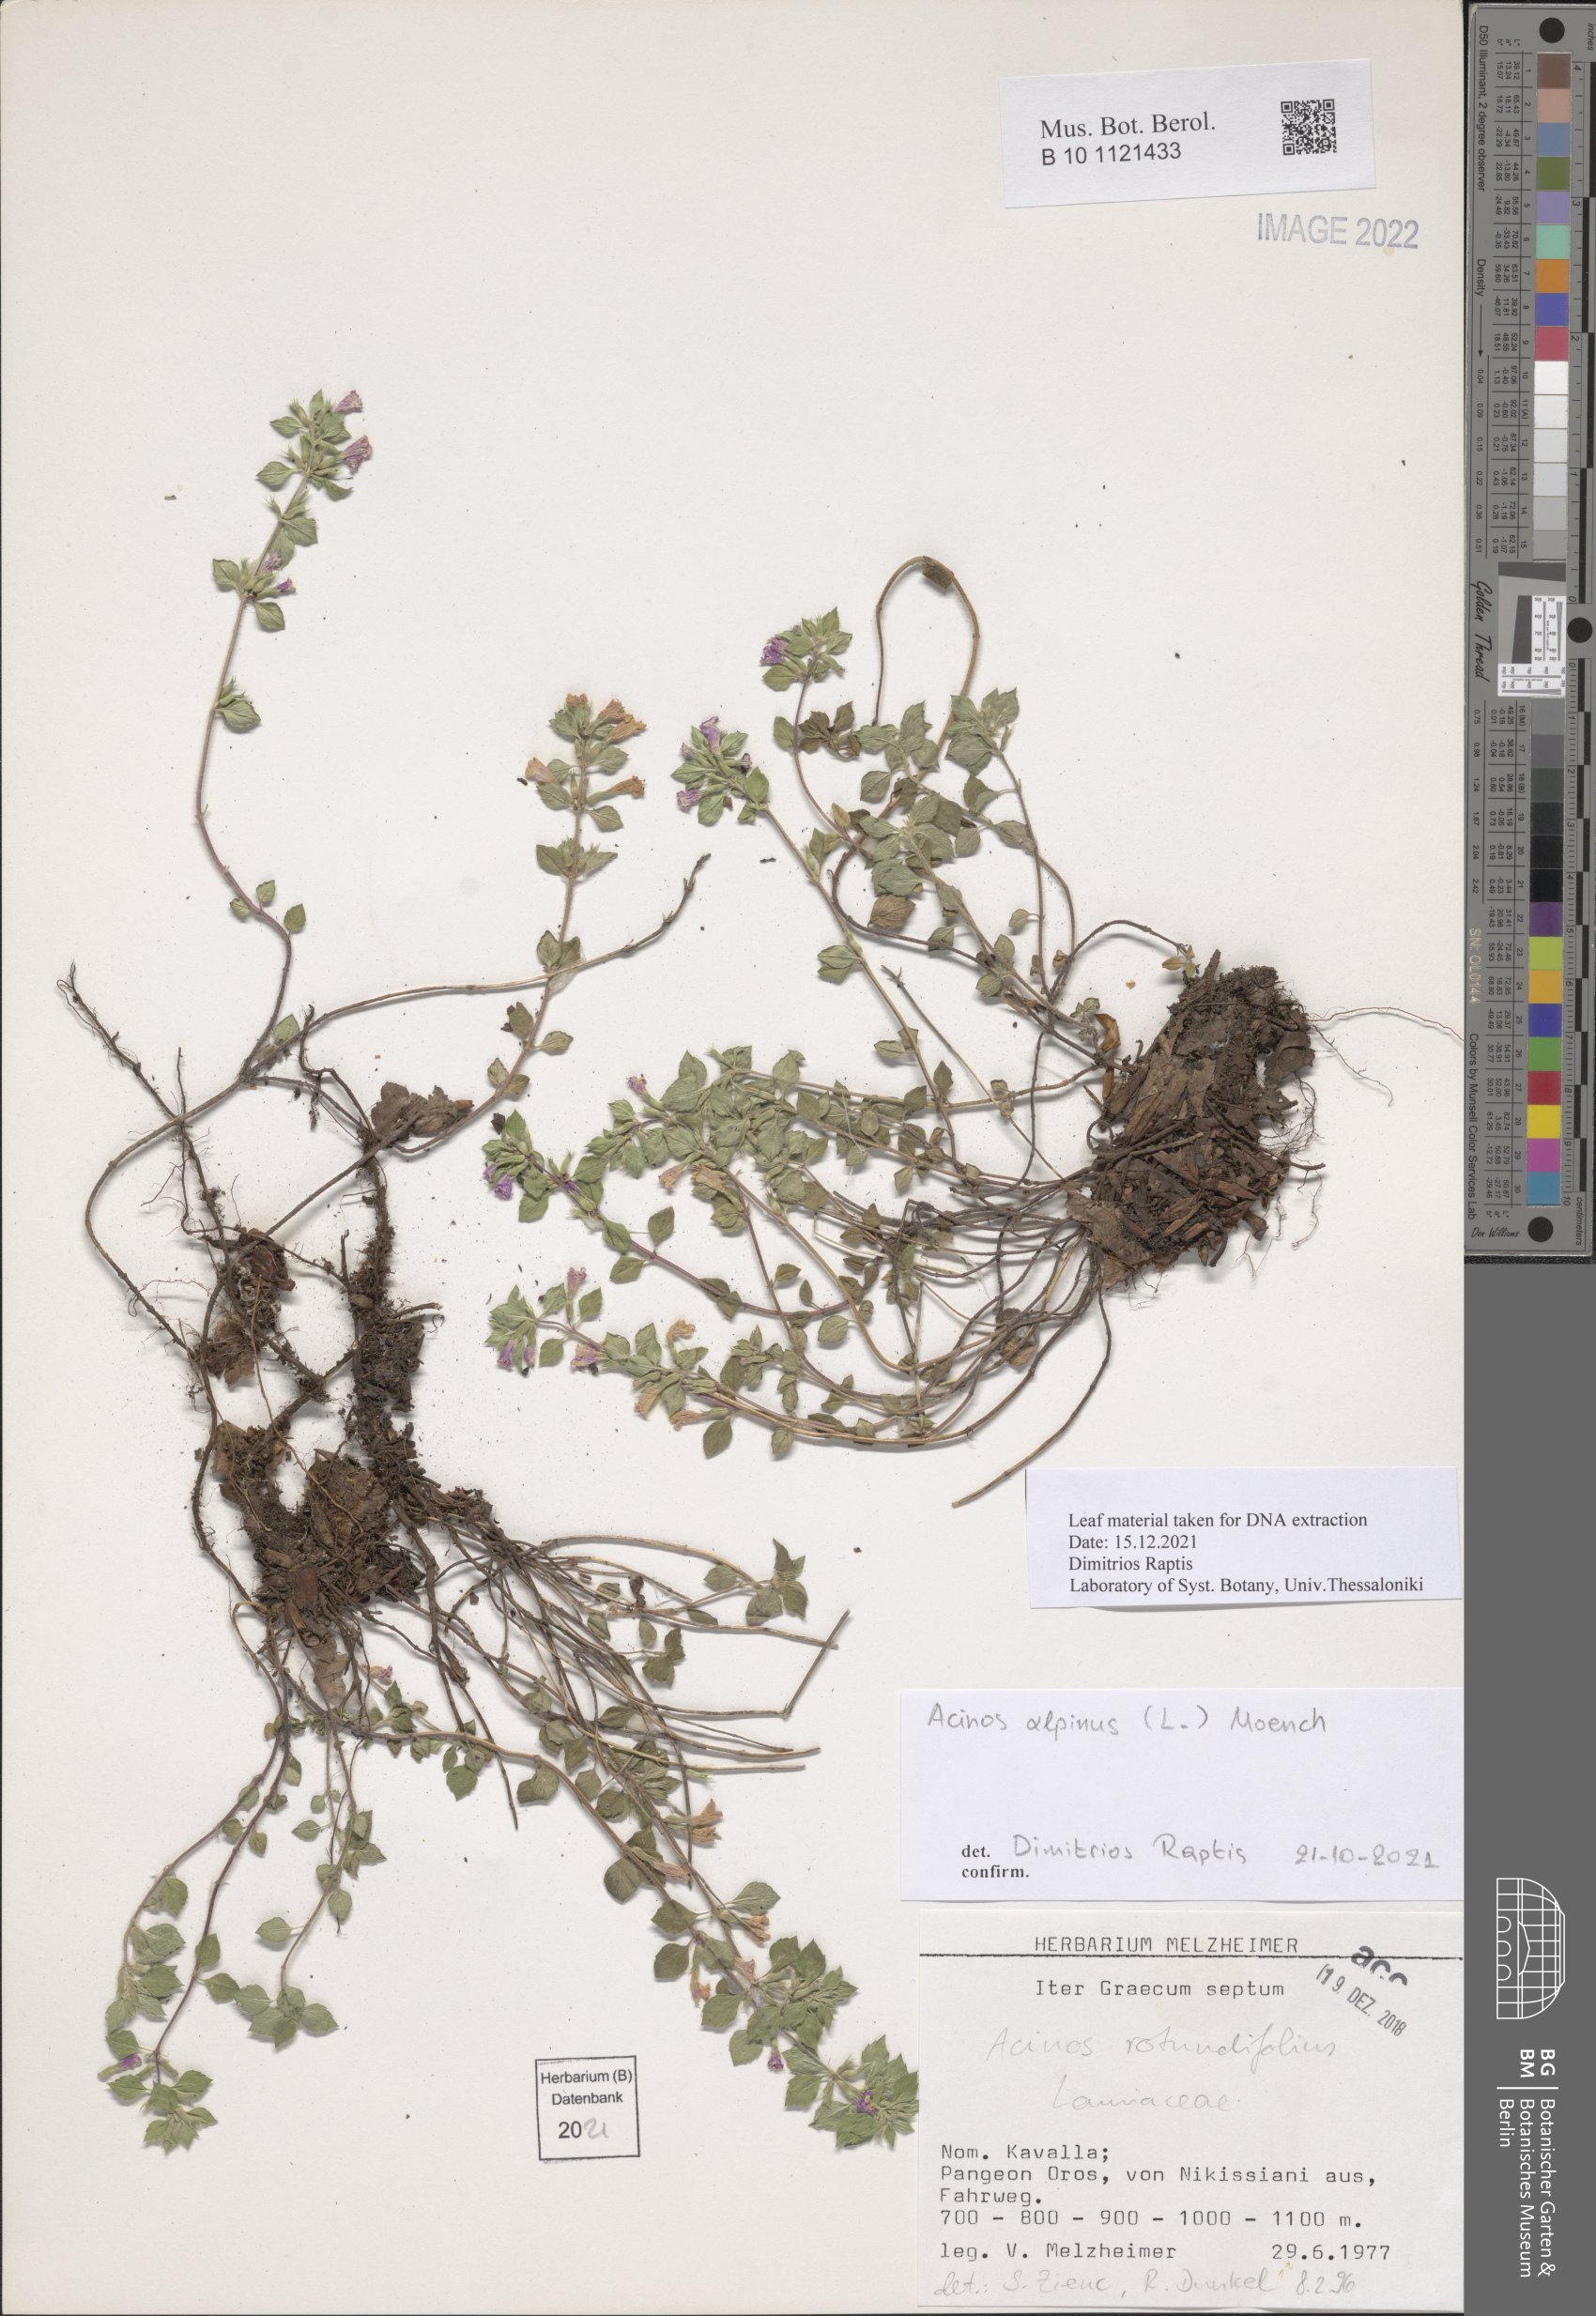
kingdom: Plantae
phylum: Tracheophyta
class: Magnoliopsida
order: Lamiales
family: Lamiaceae
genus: Clinopodium
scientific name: Clinopodium alpinum
